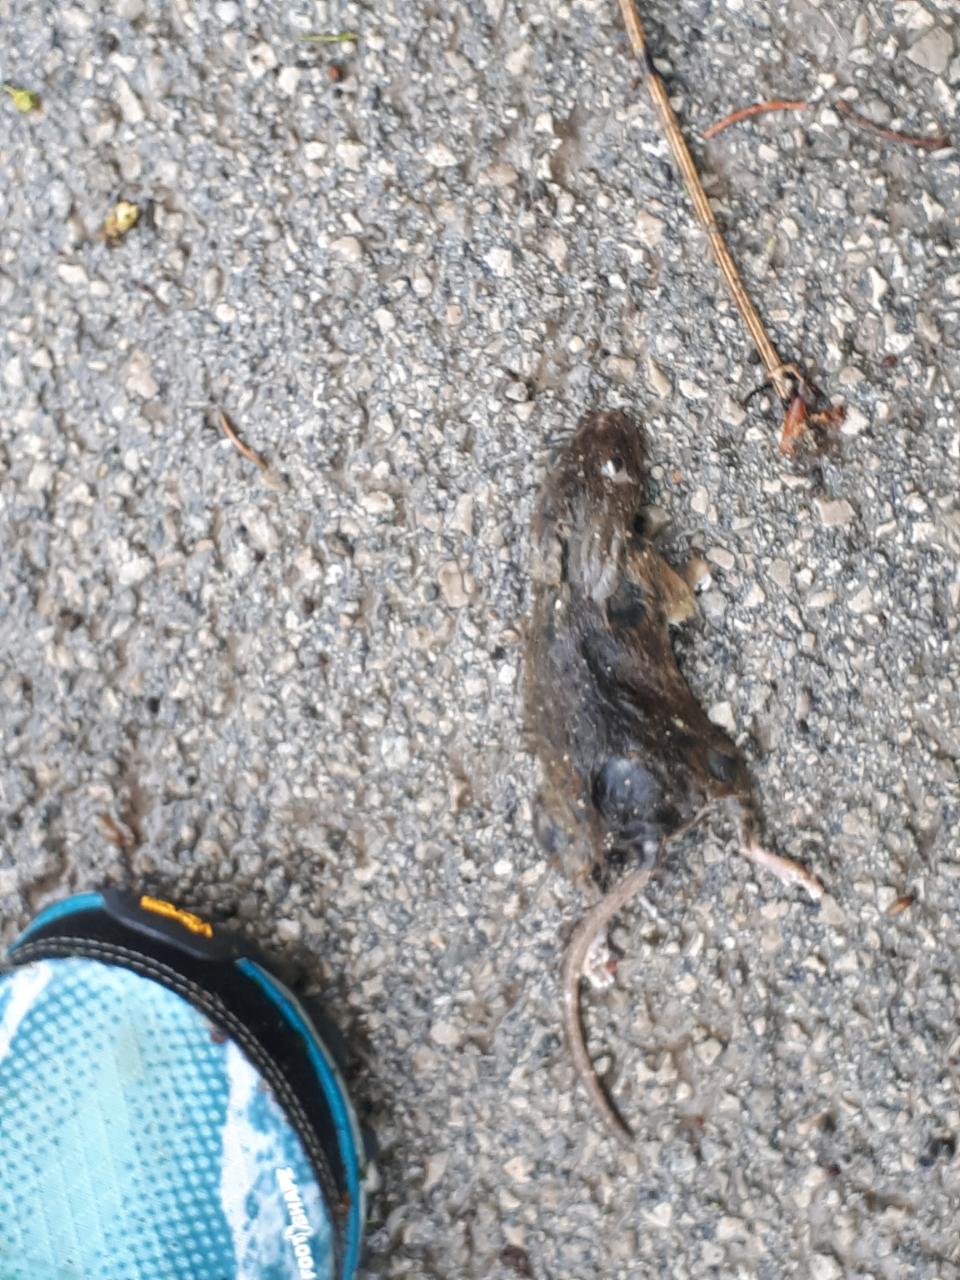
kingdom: Animalia
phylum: Chordata
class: Mammalia
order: Rodentia
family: Muridae
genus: Apodemus
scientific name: Apodemus
